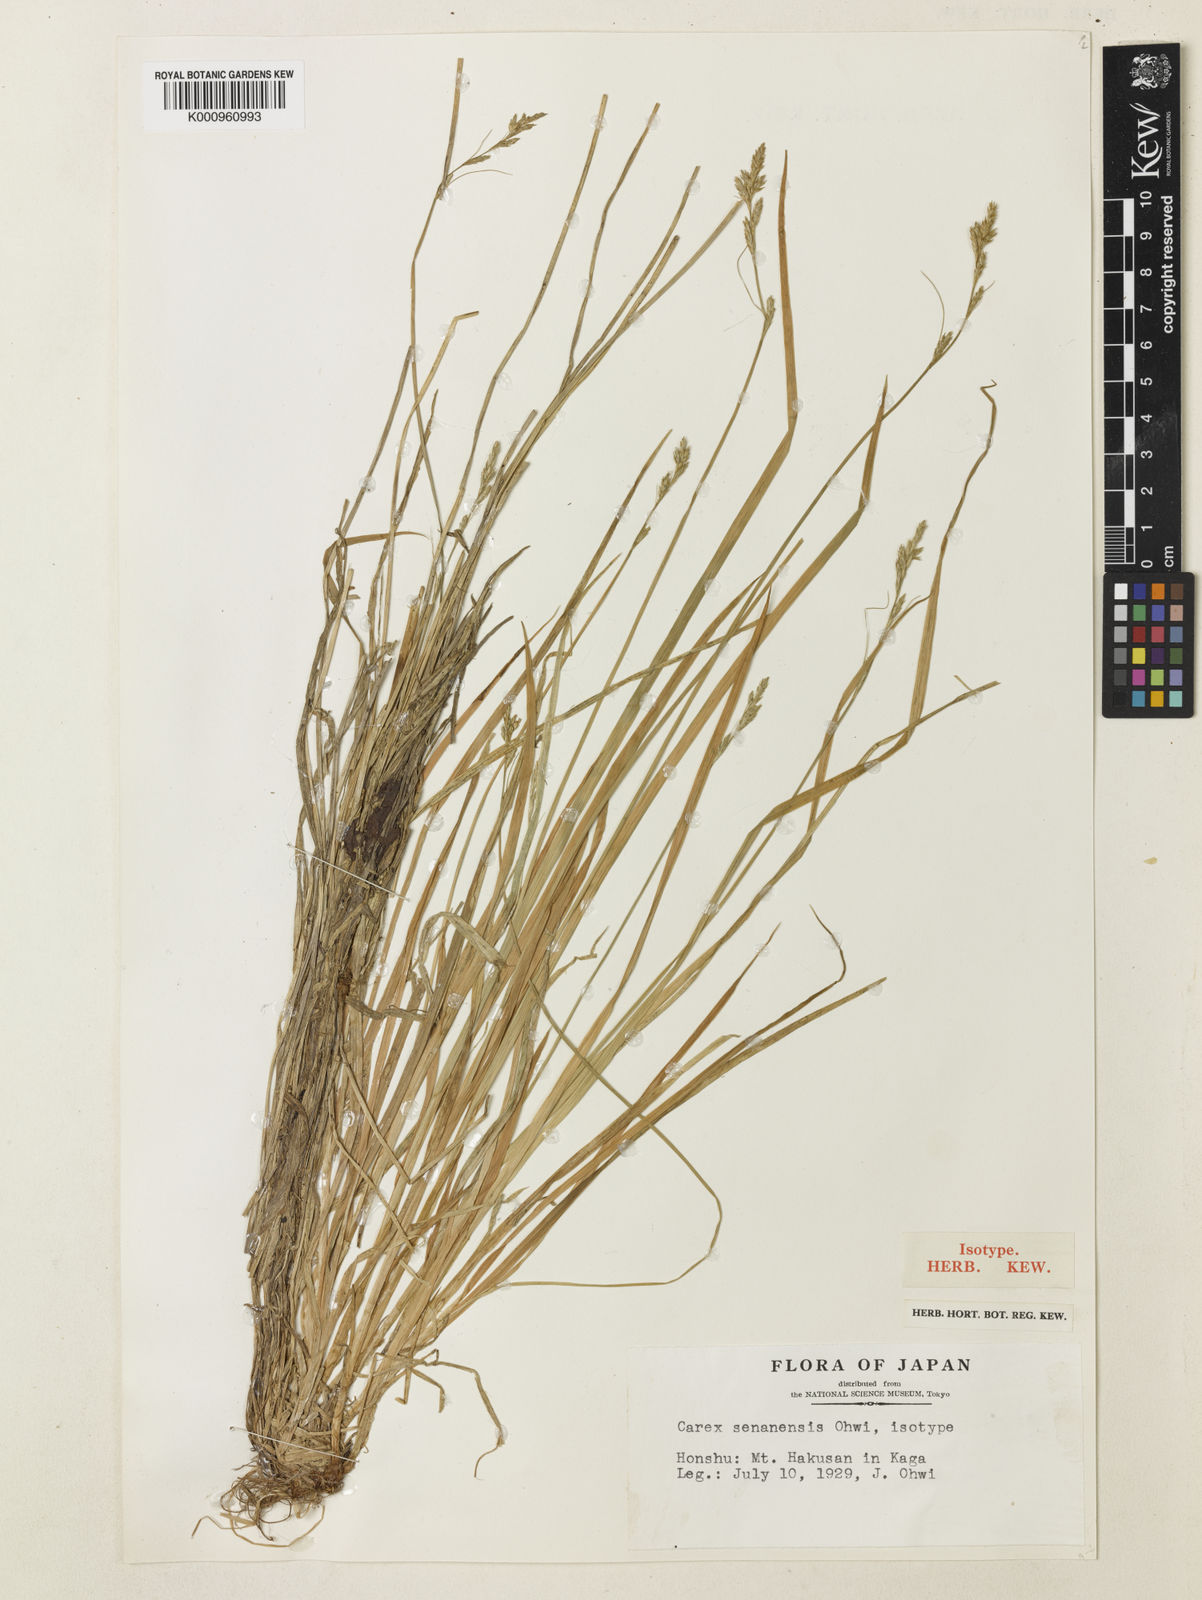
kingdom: Plantae
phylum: Tracheophyta
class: Liliopsida
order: Poales
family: Cyperaceae
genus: Carex
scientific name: Carex senanensis
